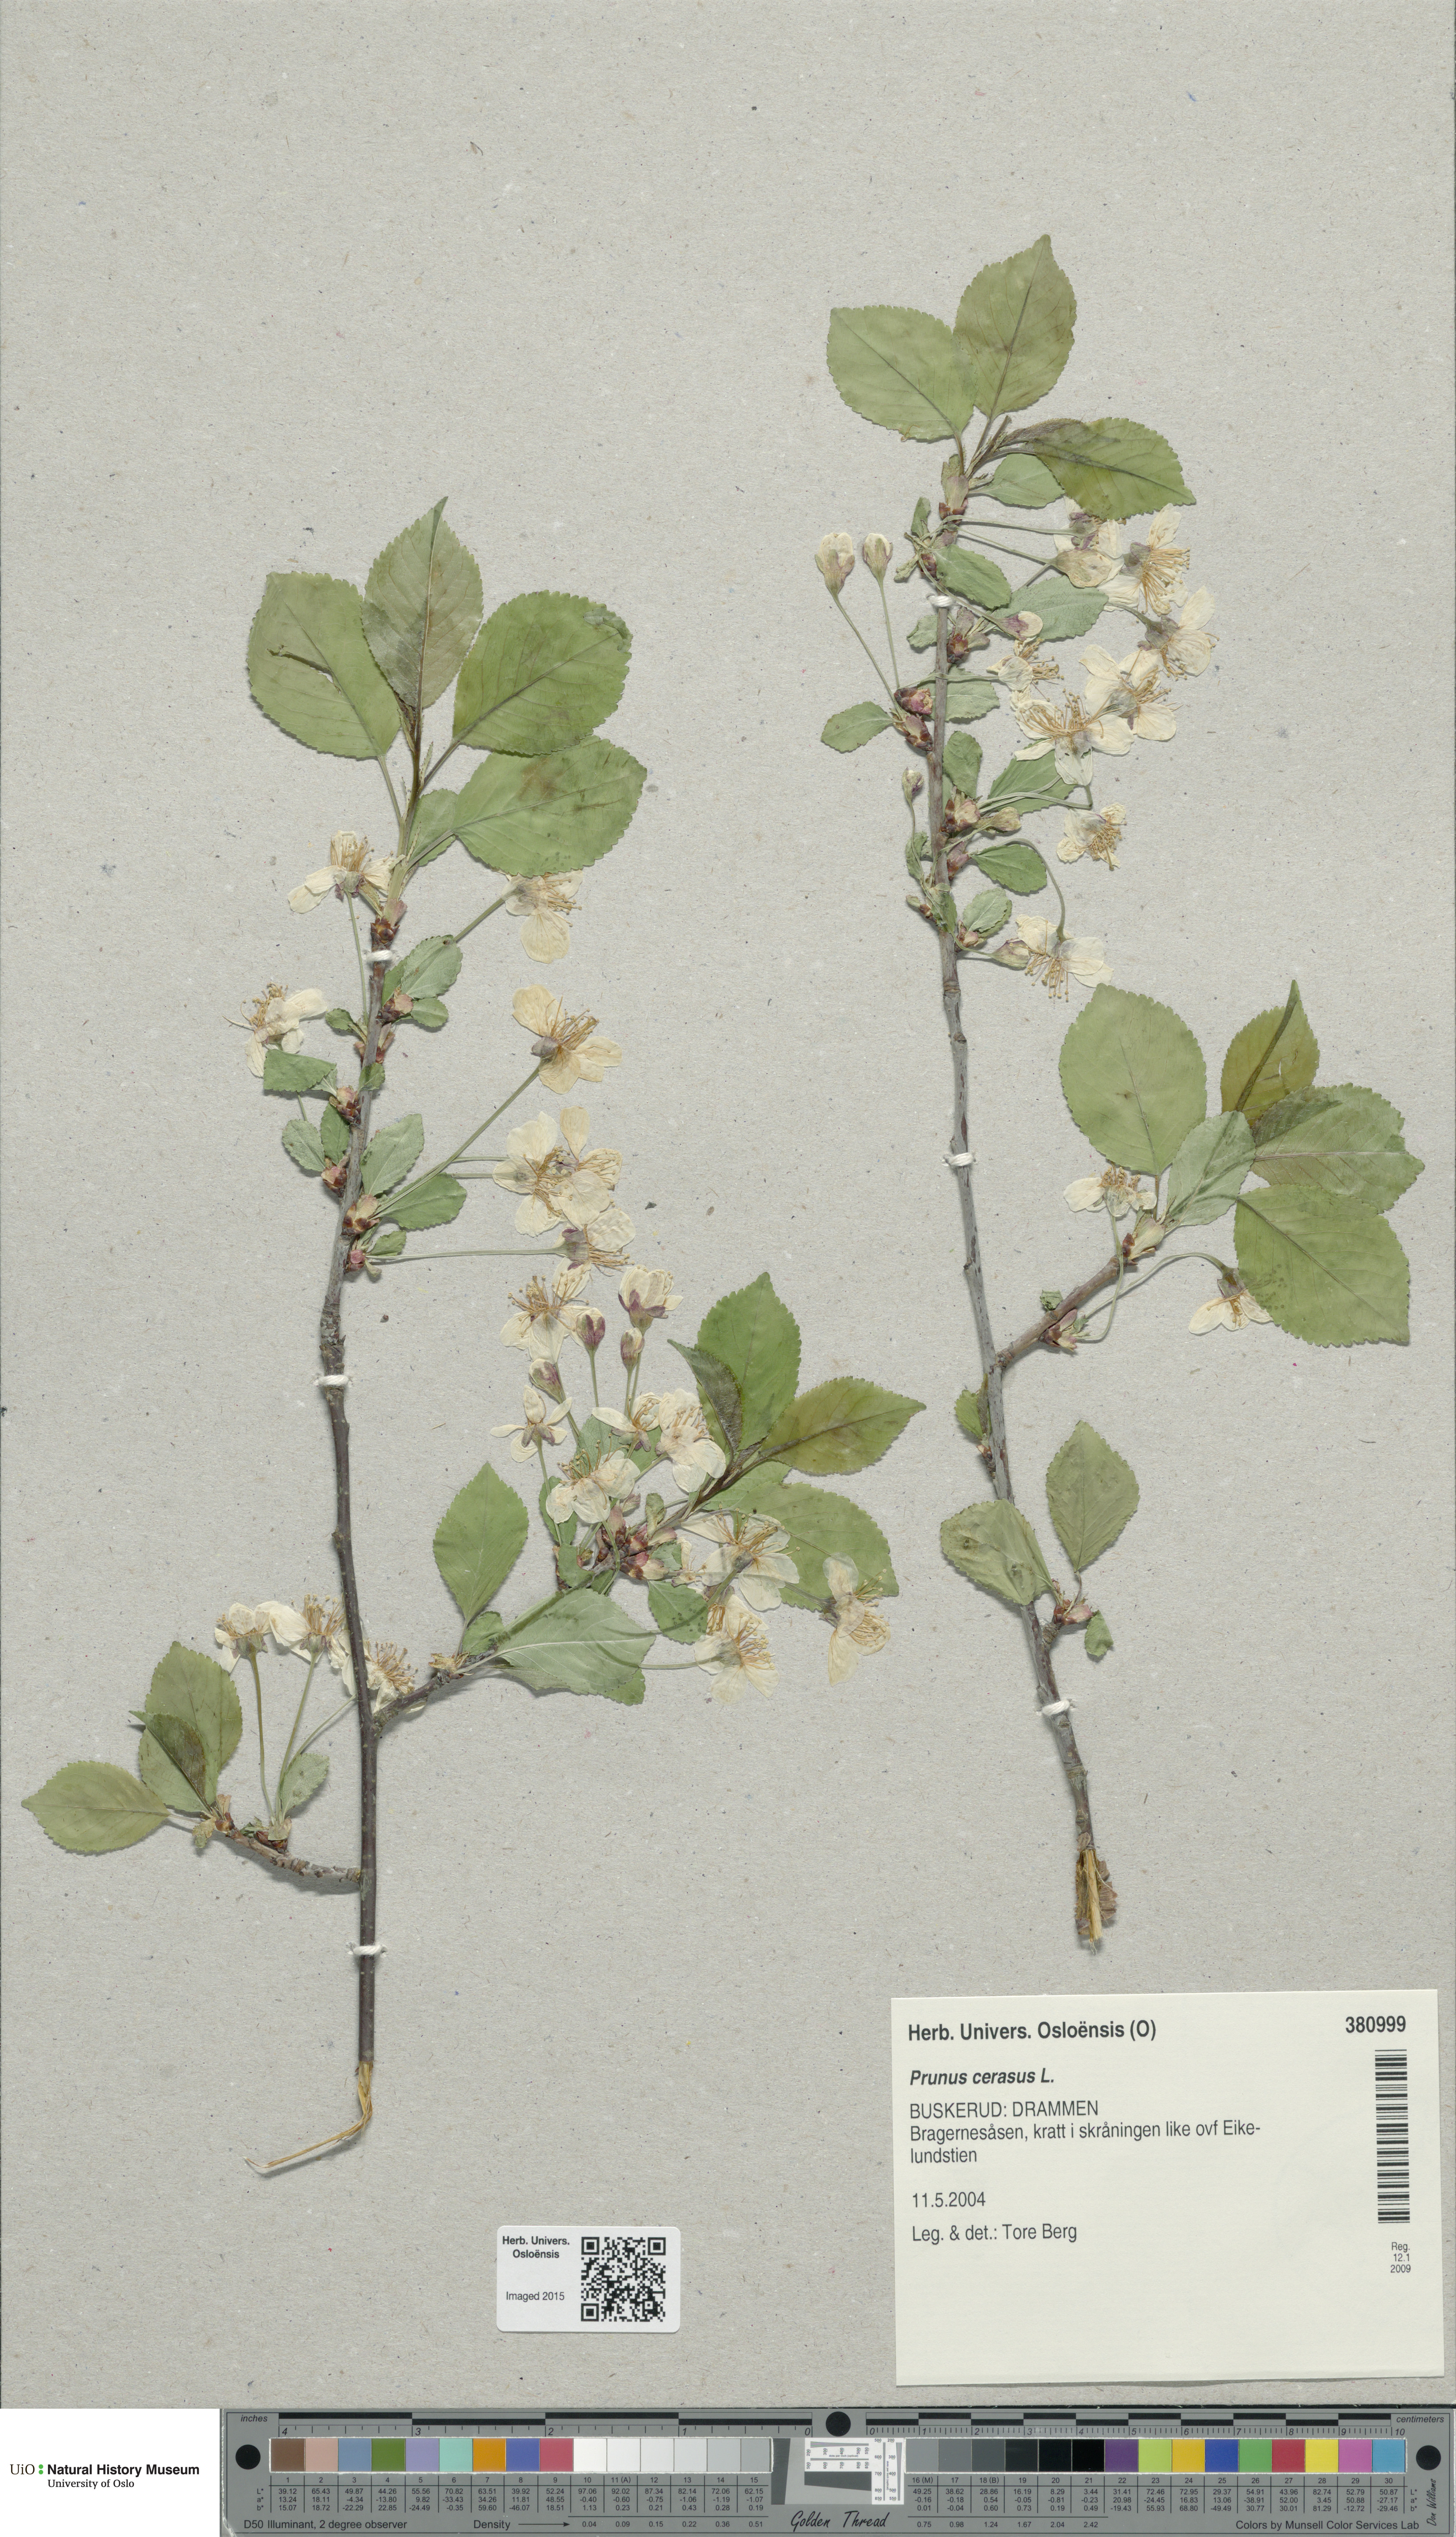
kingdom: Plantae
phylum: Tracheophyta
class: Magnoliopsida
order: Rosales
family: Rosaceae
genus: Prunus
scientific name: Prunus cerasus
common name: Morello cherry
